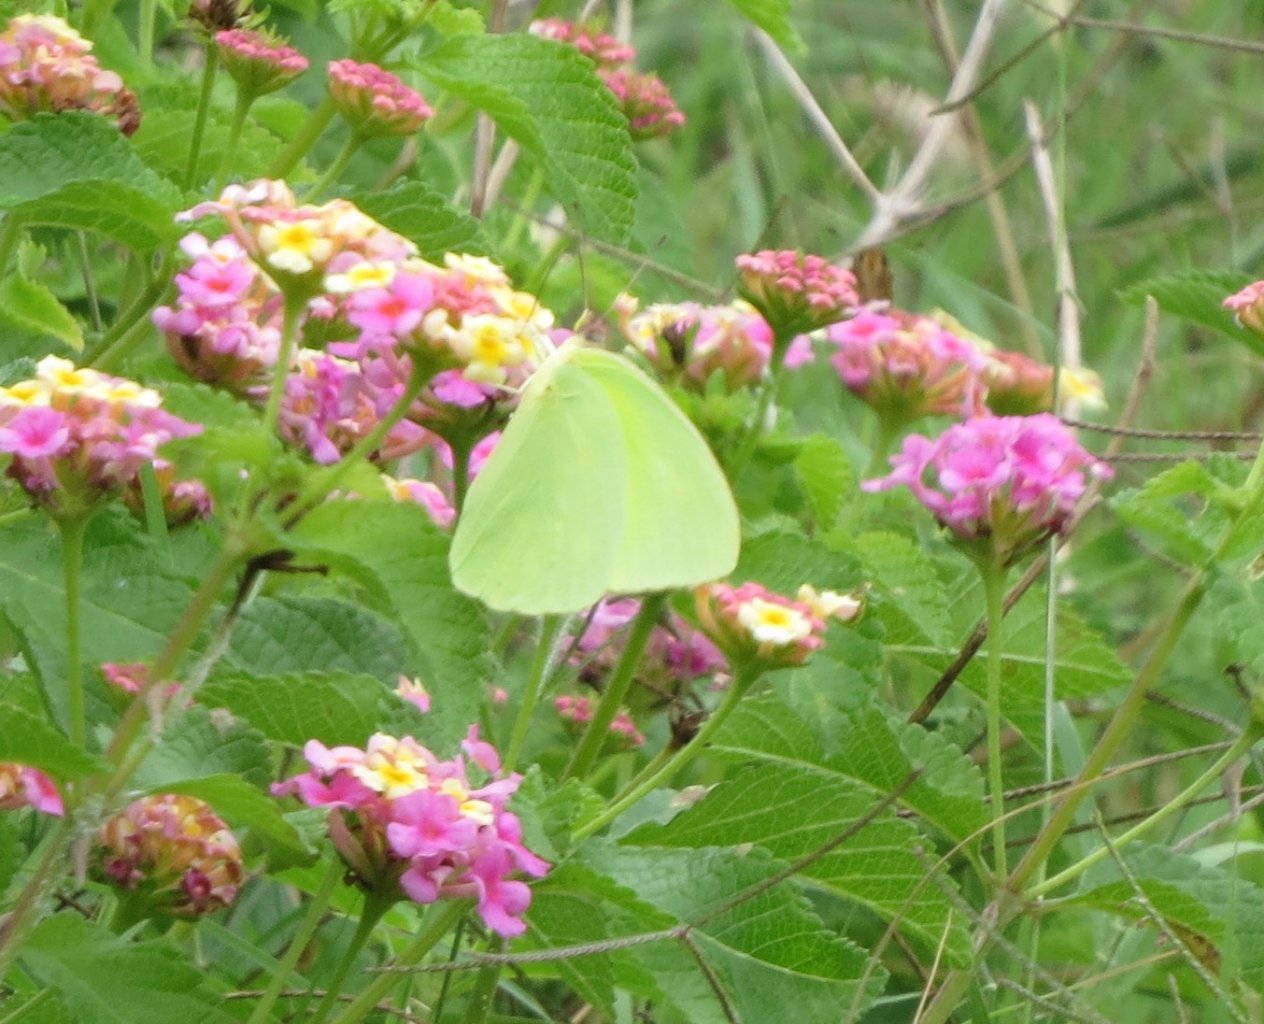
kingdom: Animalia
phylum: Arthropoda
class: Insecta
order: Lepidoptera
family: Pieridae
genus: Phoebis
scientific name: Phoebis sennae
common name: Cloudless Sulphur
